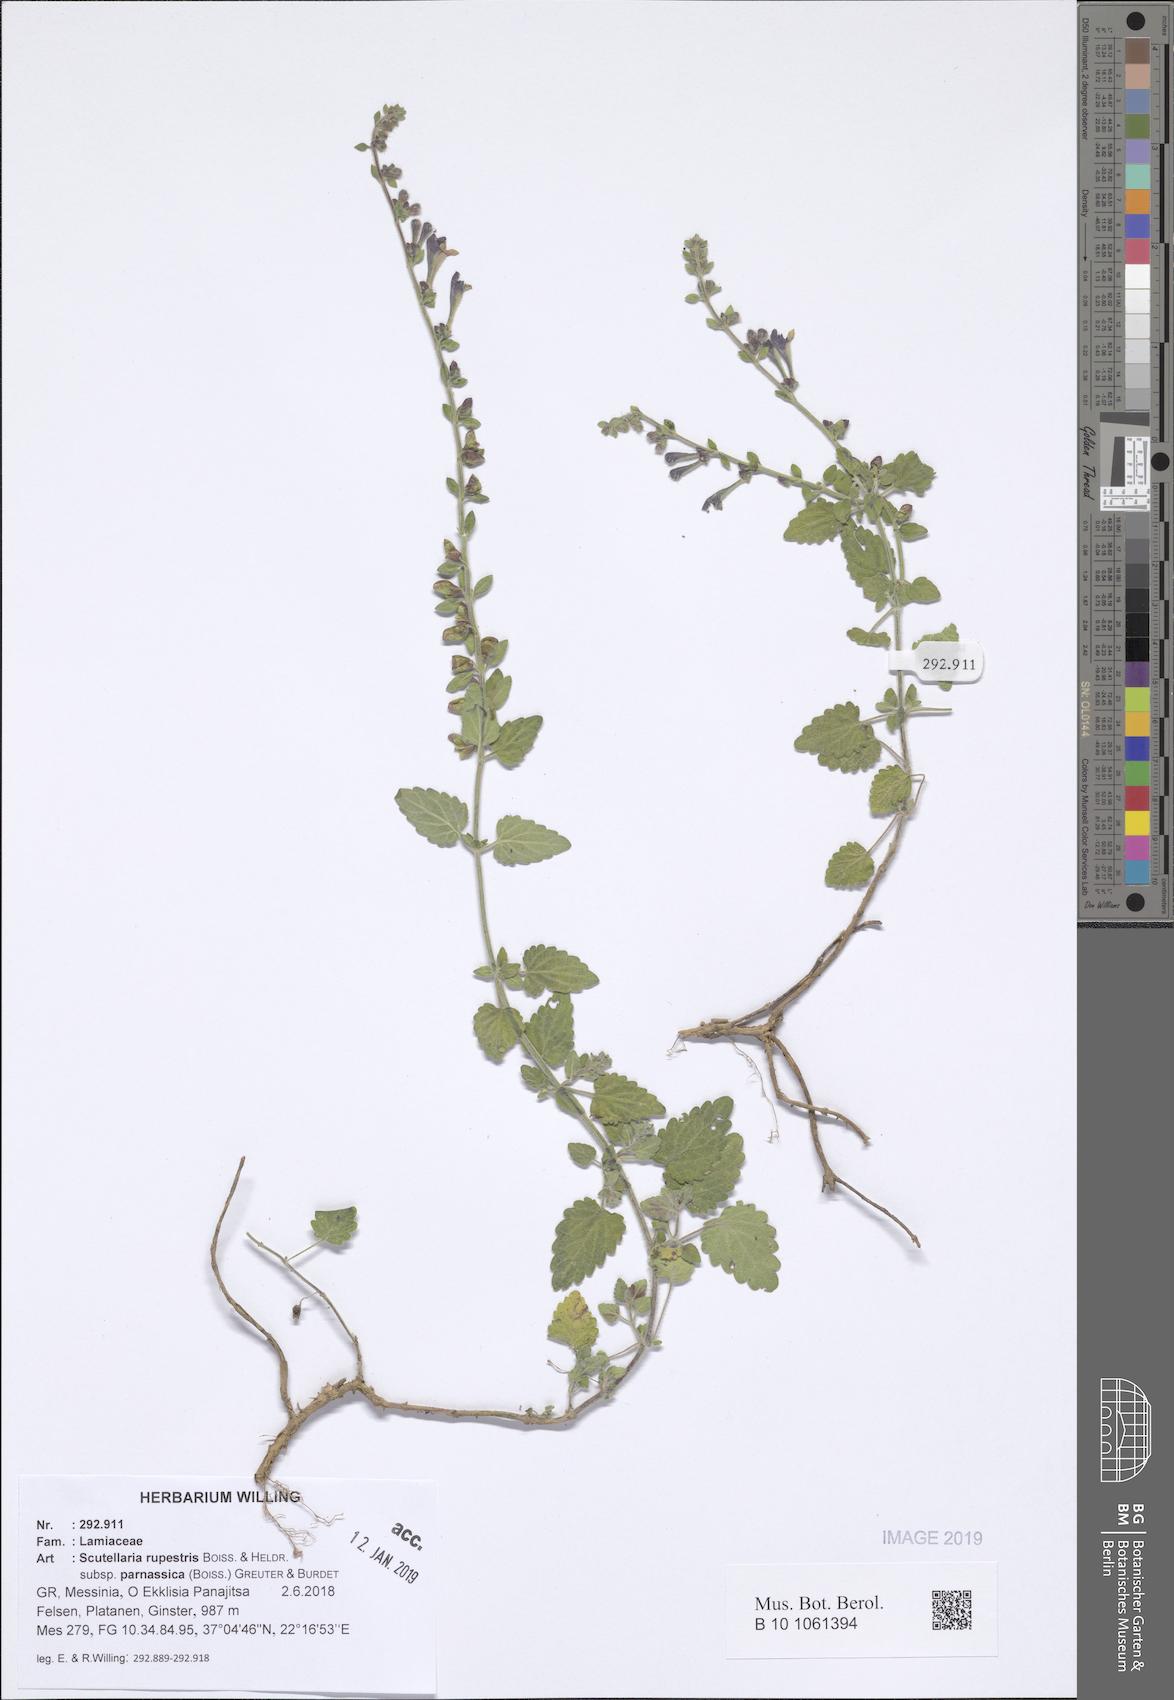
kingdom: Plantae
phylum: Tracheophyta
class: Magnoliopsida
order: Lamiales
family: Lamiaceae
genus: Scutellaria
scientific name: Scutellaria rupestris
